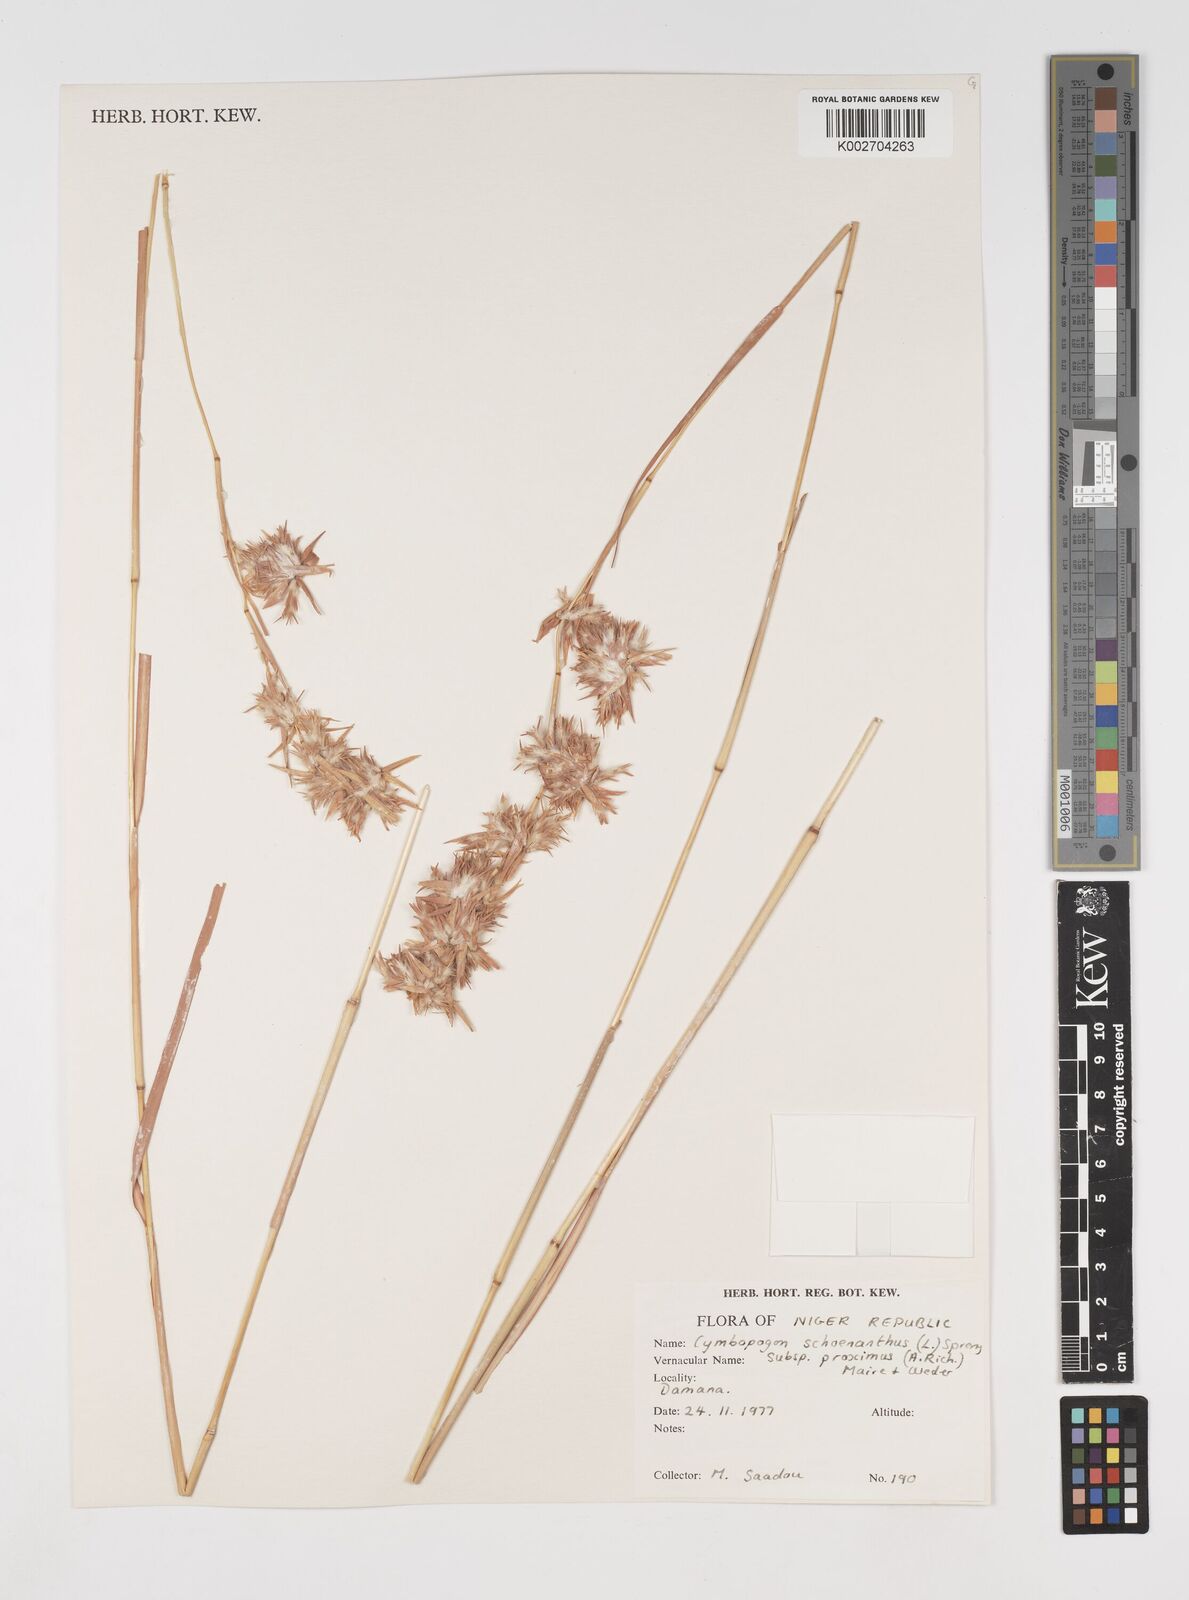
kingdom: Plantae
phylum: Tracheophyta
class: Liliopsida
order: Poales
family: Poaceae
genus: Cymbopogon
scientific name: Cymbopogon schoenanthus
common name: Geranium grass
